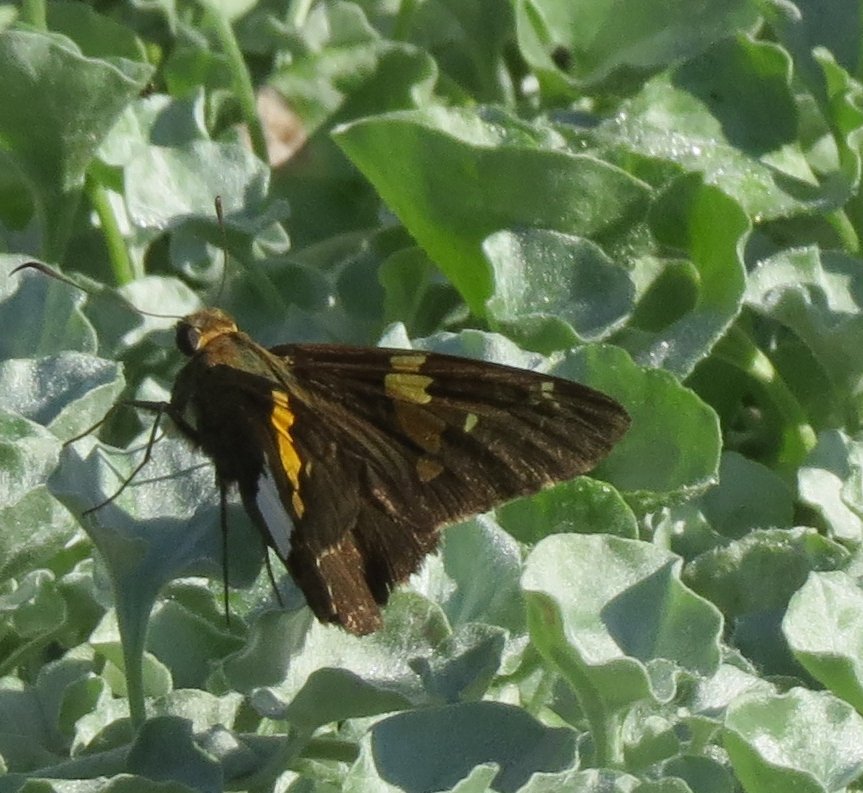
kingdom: Animalia
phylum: Arthropoda
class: Insecta
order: Lepidoptera
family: Hesperiidae
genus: Epargyreus
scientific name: Epargyreus clarus
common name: Silver-spotted Skipper
